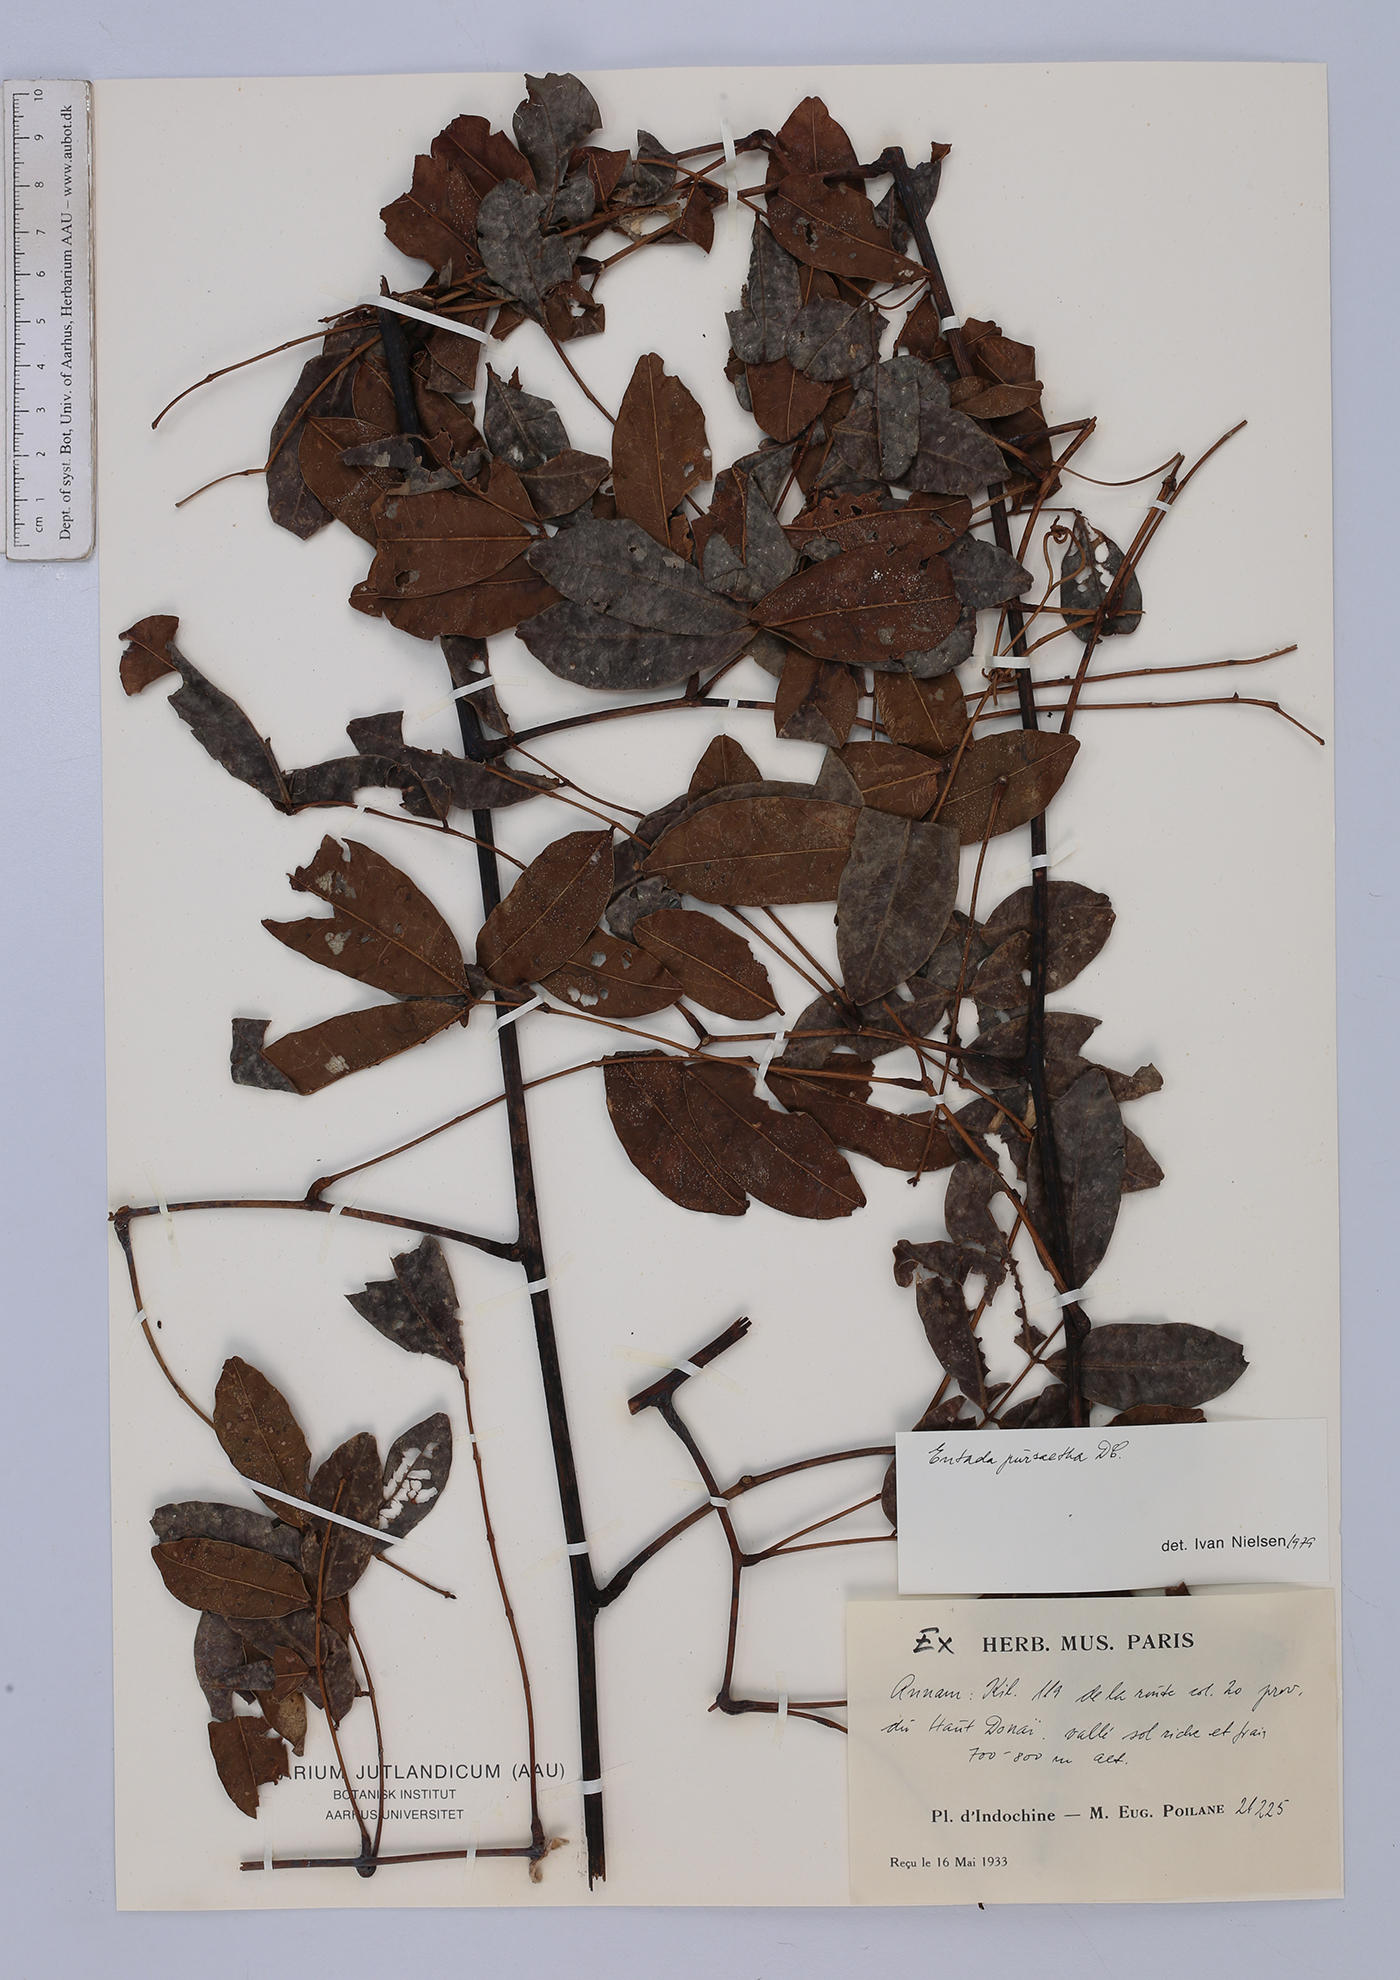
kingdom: Plantae
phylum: Tracheophyta
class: Magnoliopsida
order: Fabales
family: Fabaceae
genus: Entada
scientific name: Entada rheedei
